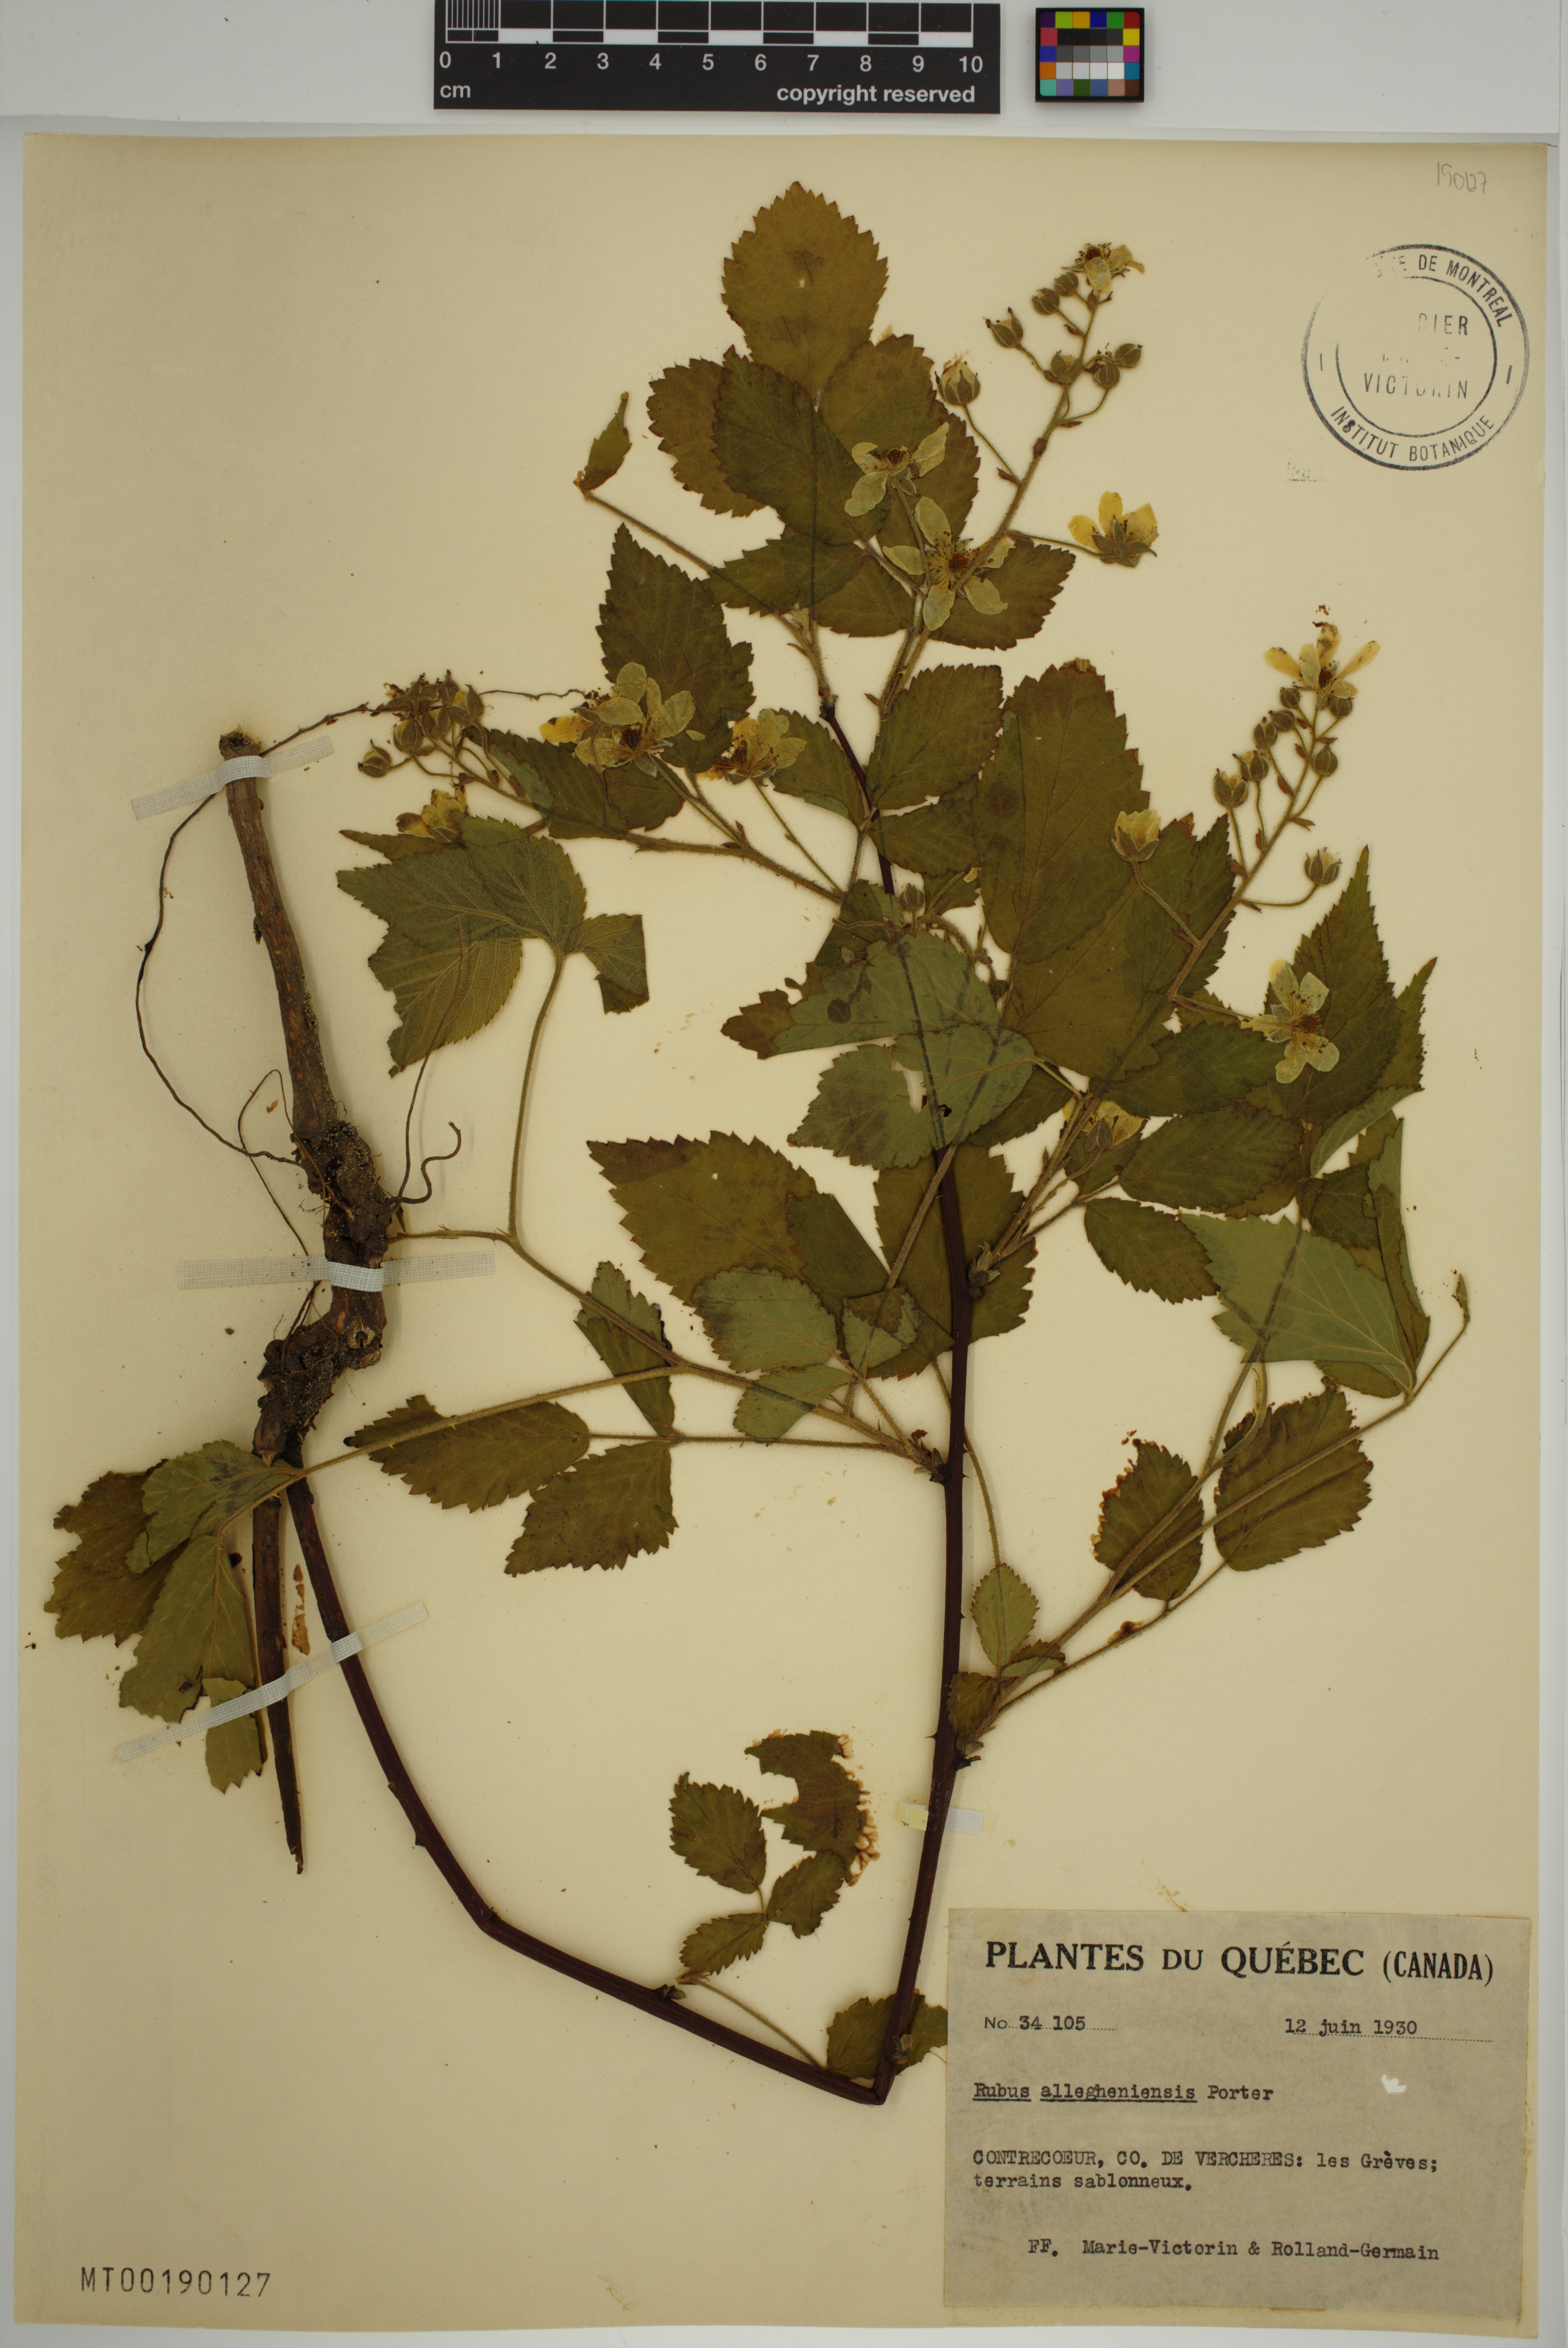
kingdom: Plantae
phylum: Tracheophyta
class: Magnoliopsida
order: Rosales
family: Rosaceae
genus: Rubus
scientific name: Rubus allegheniensis
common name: Allegheny blackberry
